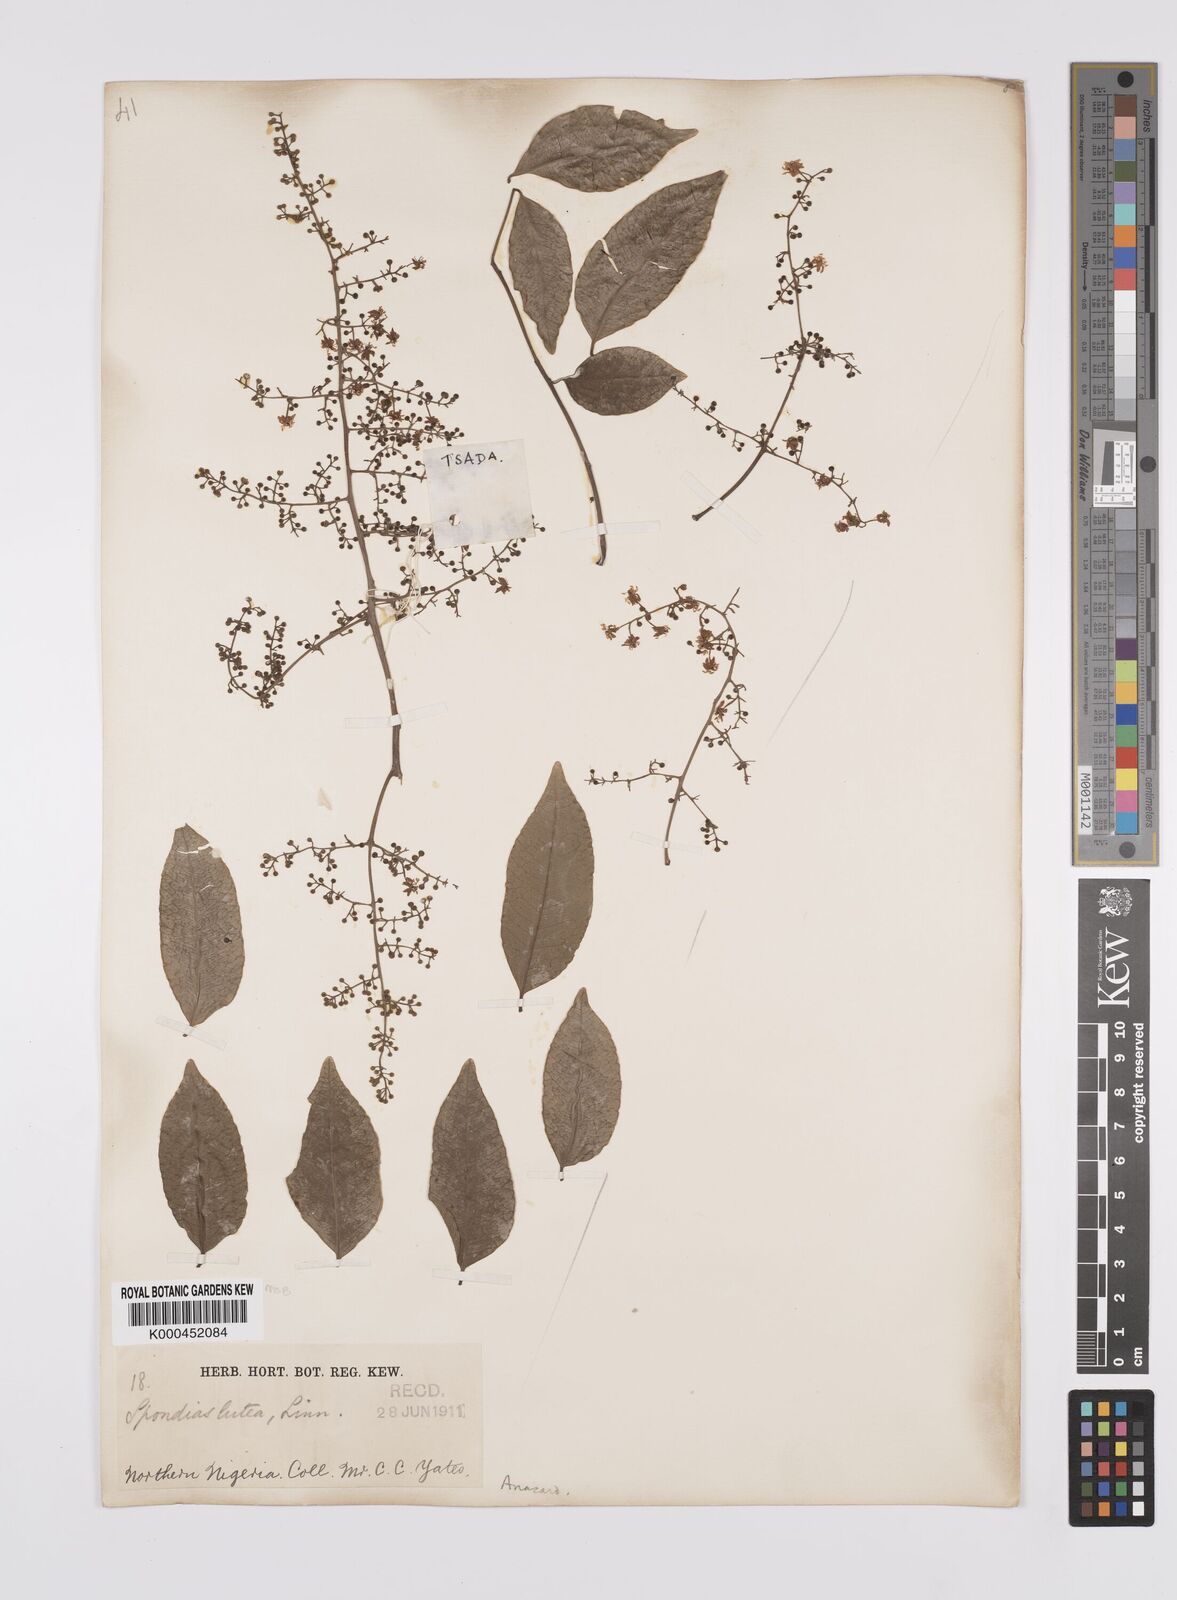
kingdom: Plantae
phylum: Tracheophyta
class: Magnoliopsida
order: Sapindales
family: Anacardiaceae
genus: Spondias
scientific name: Spondias mombin
